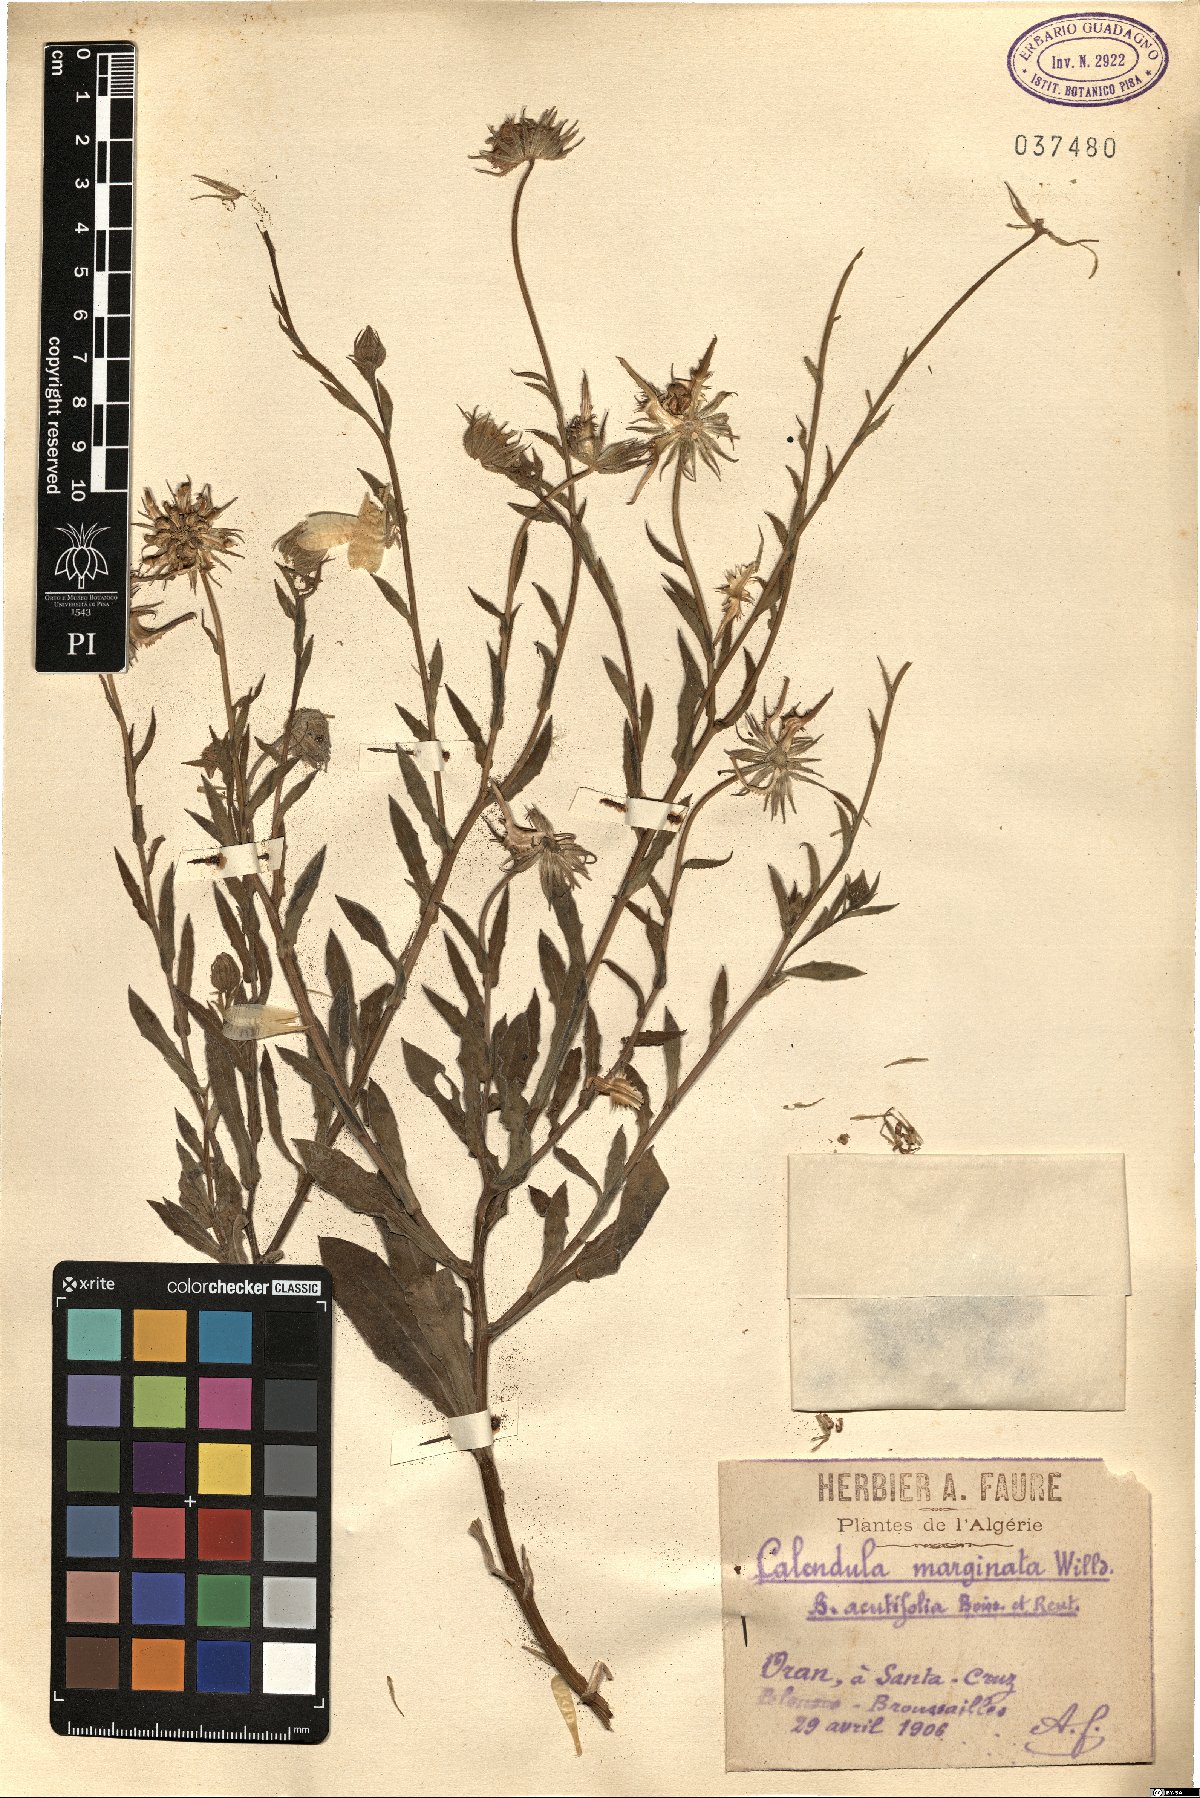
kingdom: Plantae
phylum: Tracheophyta
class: Magnoliopsida
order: Asterales
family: Asteraceae
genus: Calendula
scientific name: Calendula suffruticosa
